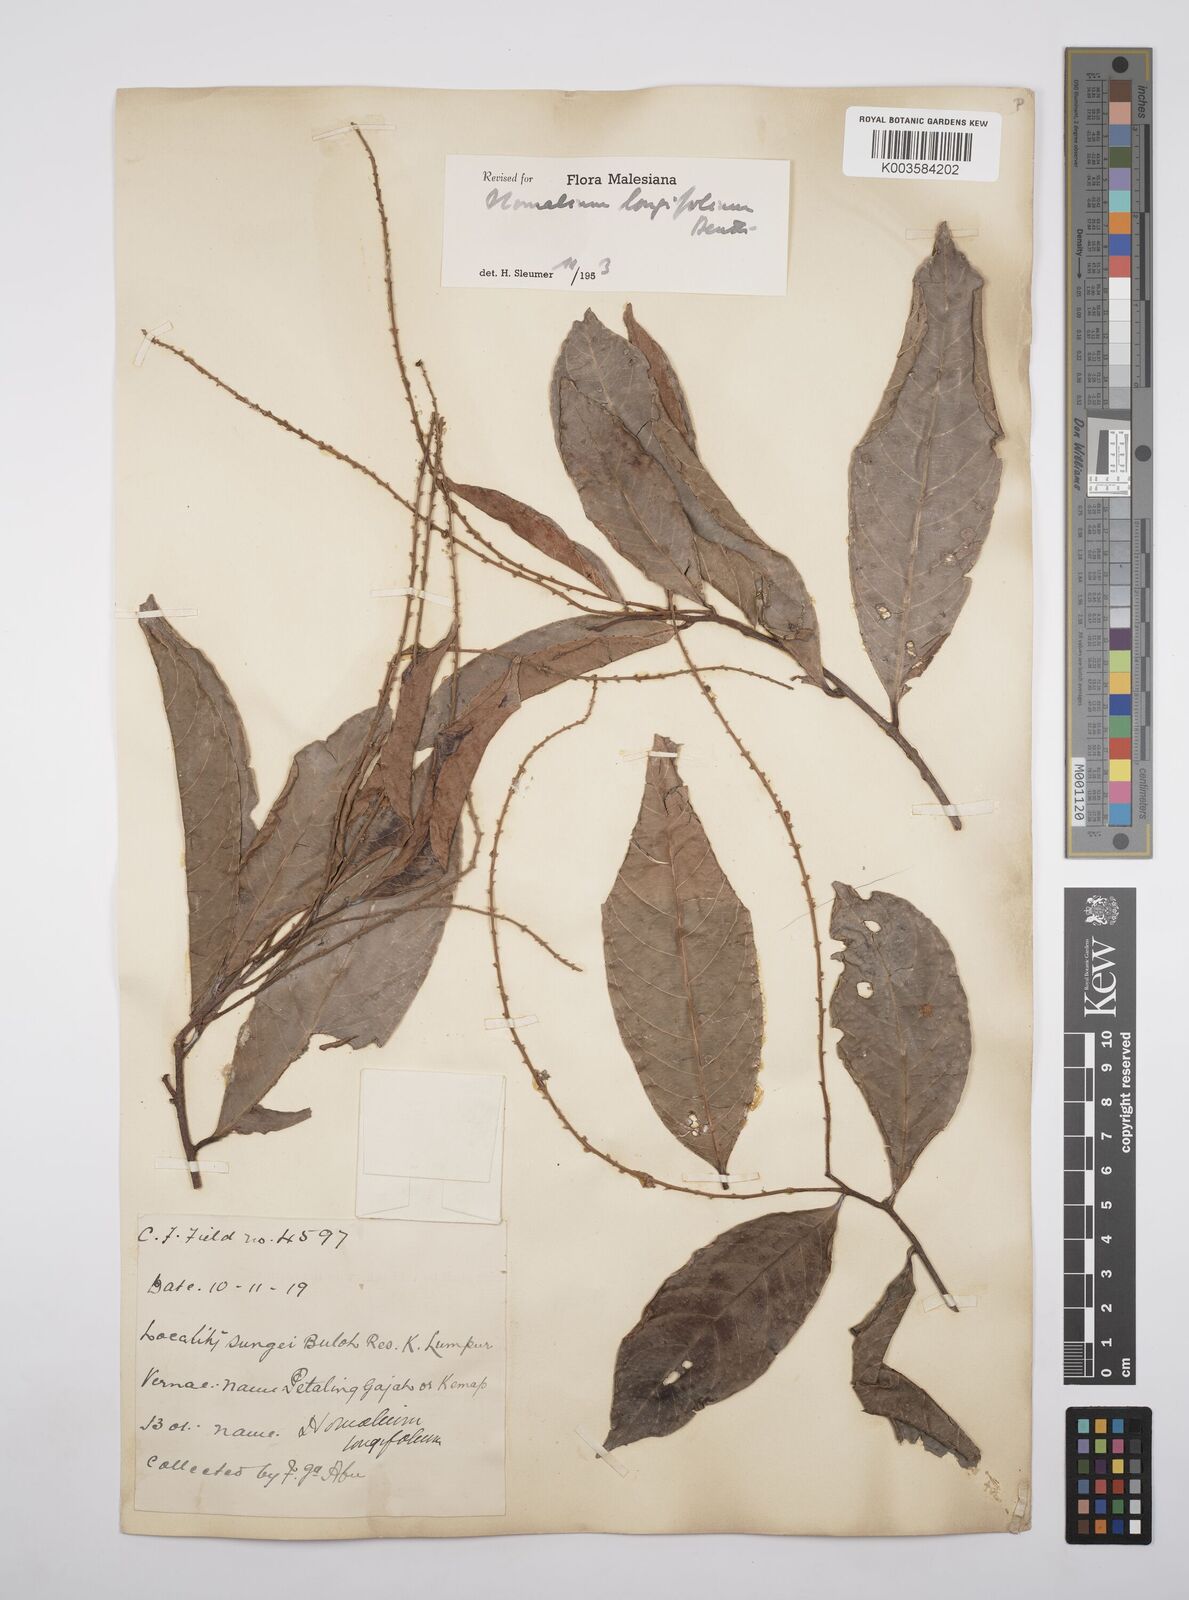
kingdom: Plantae
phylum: Tracheophyta
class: Magnoliopsida
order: Malpighiales
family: Salicaceae
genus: Homalium
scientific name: Homalium longifolium
